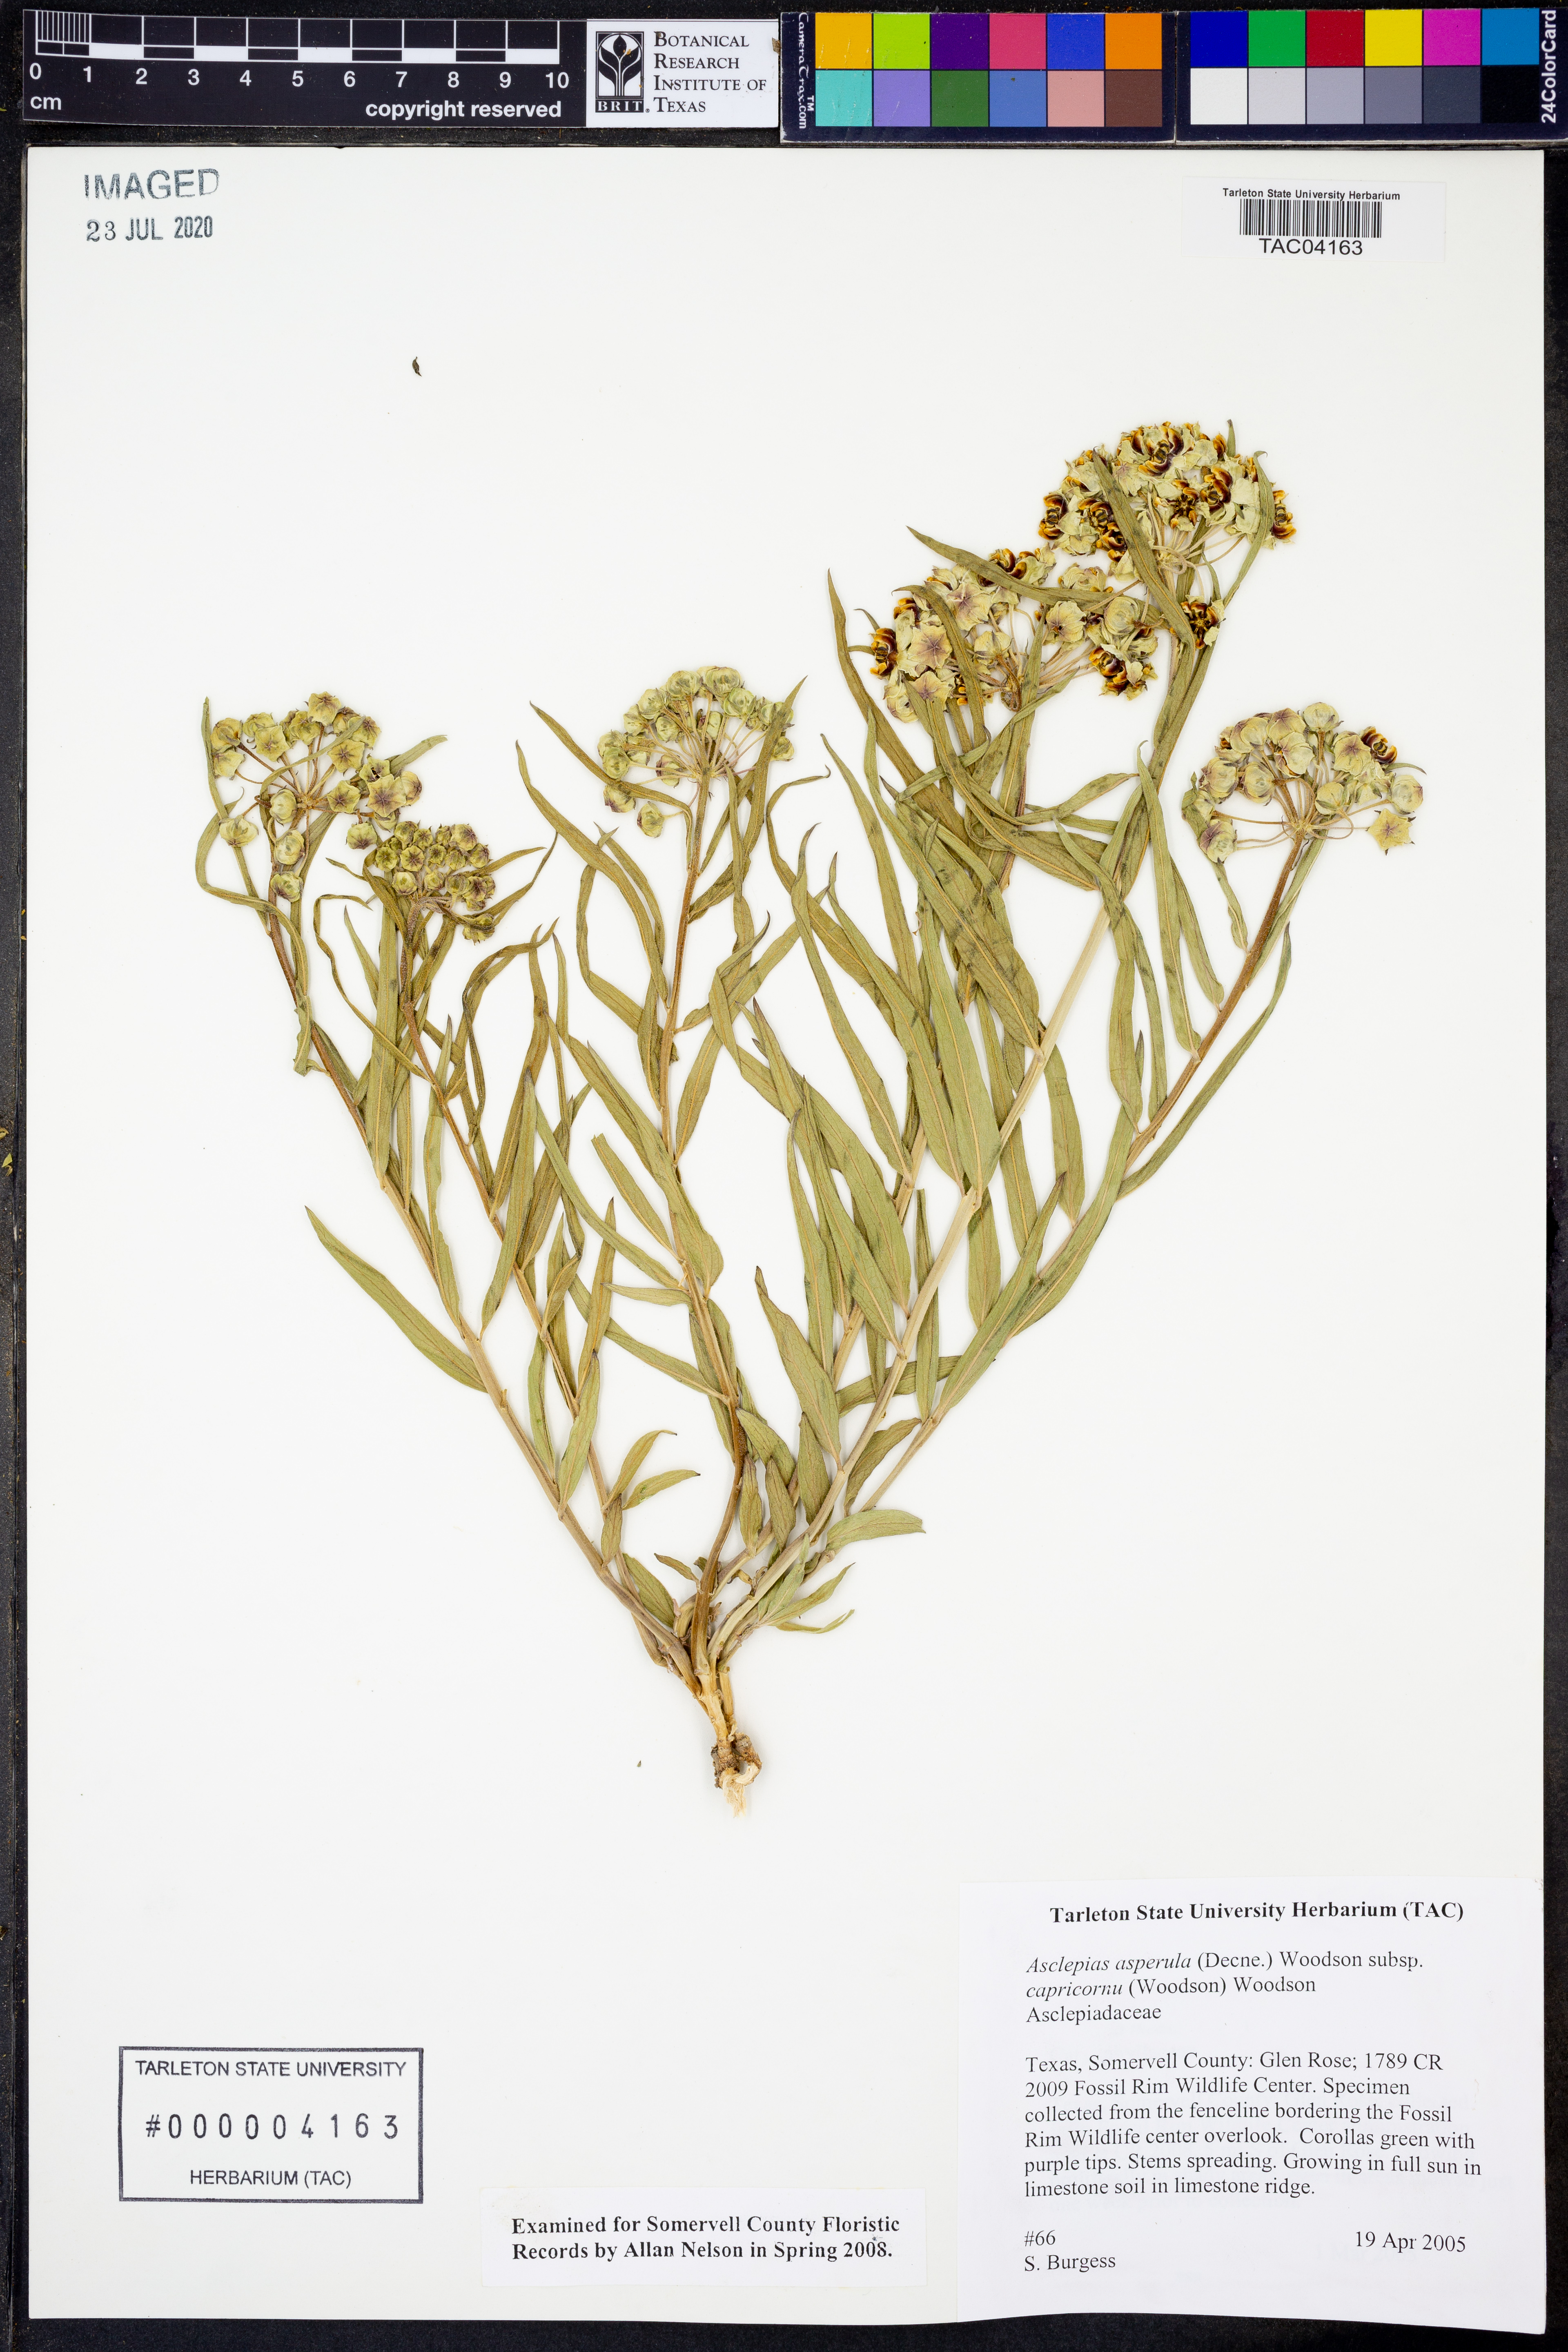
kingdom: Plantae
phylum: Tracheophyta
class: Magnoliopsida
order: Gentianales
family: Apocynaceae
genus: Asclepias
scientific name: Asclepias asperula
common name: Antelope horns
